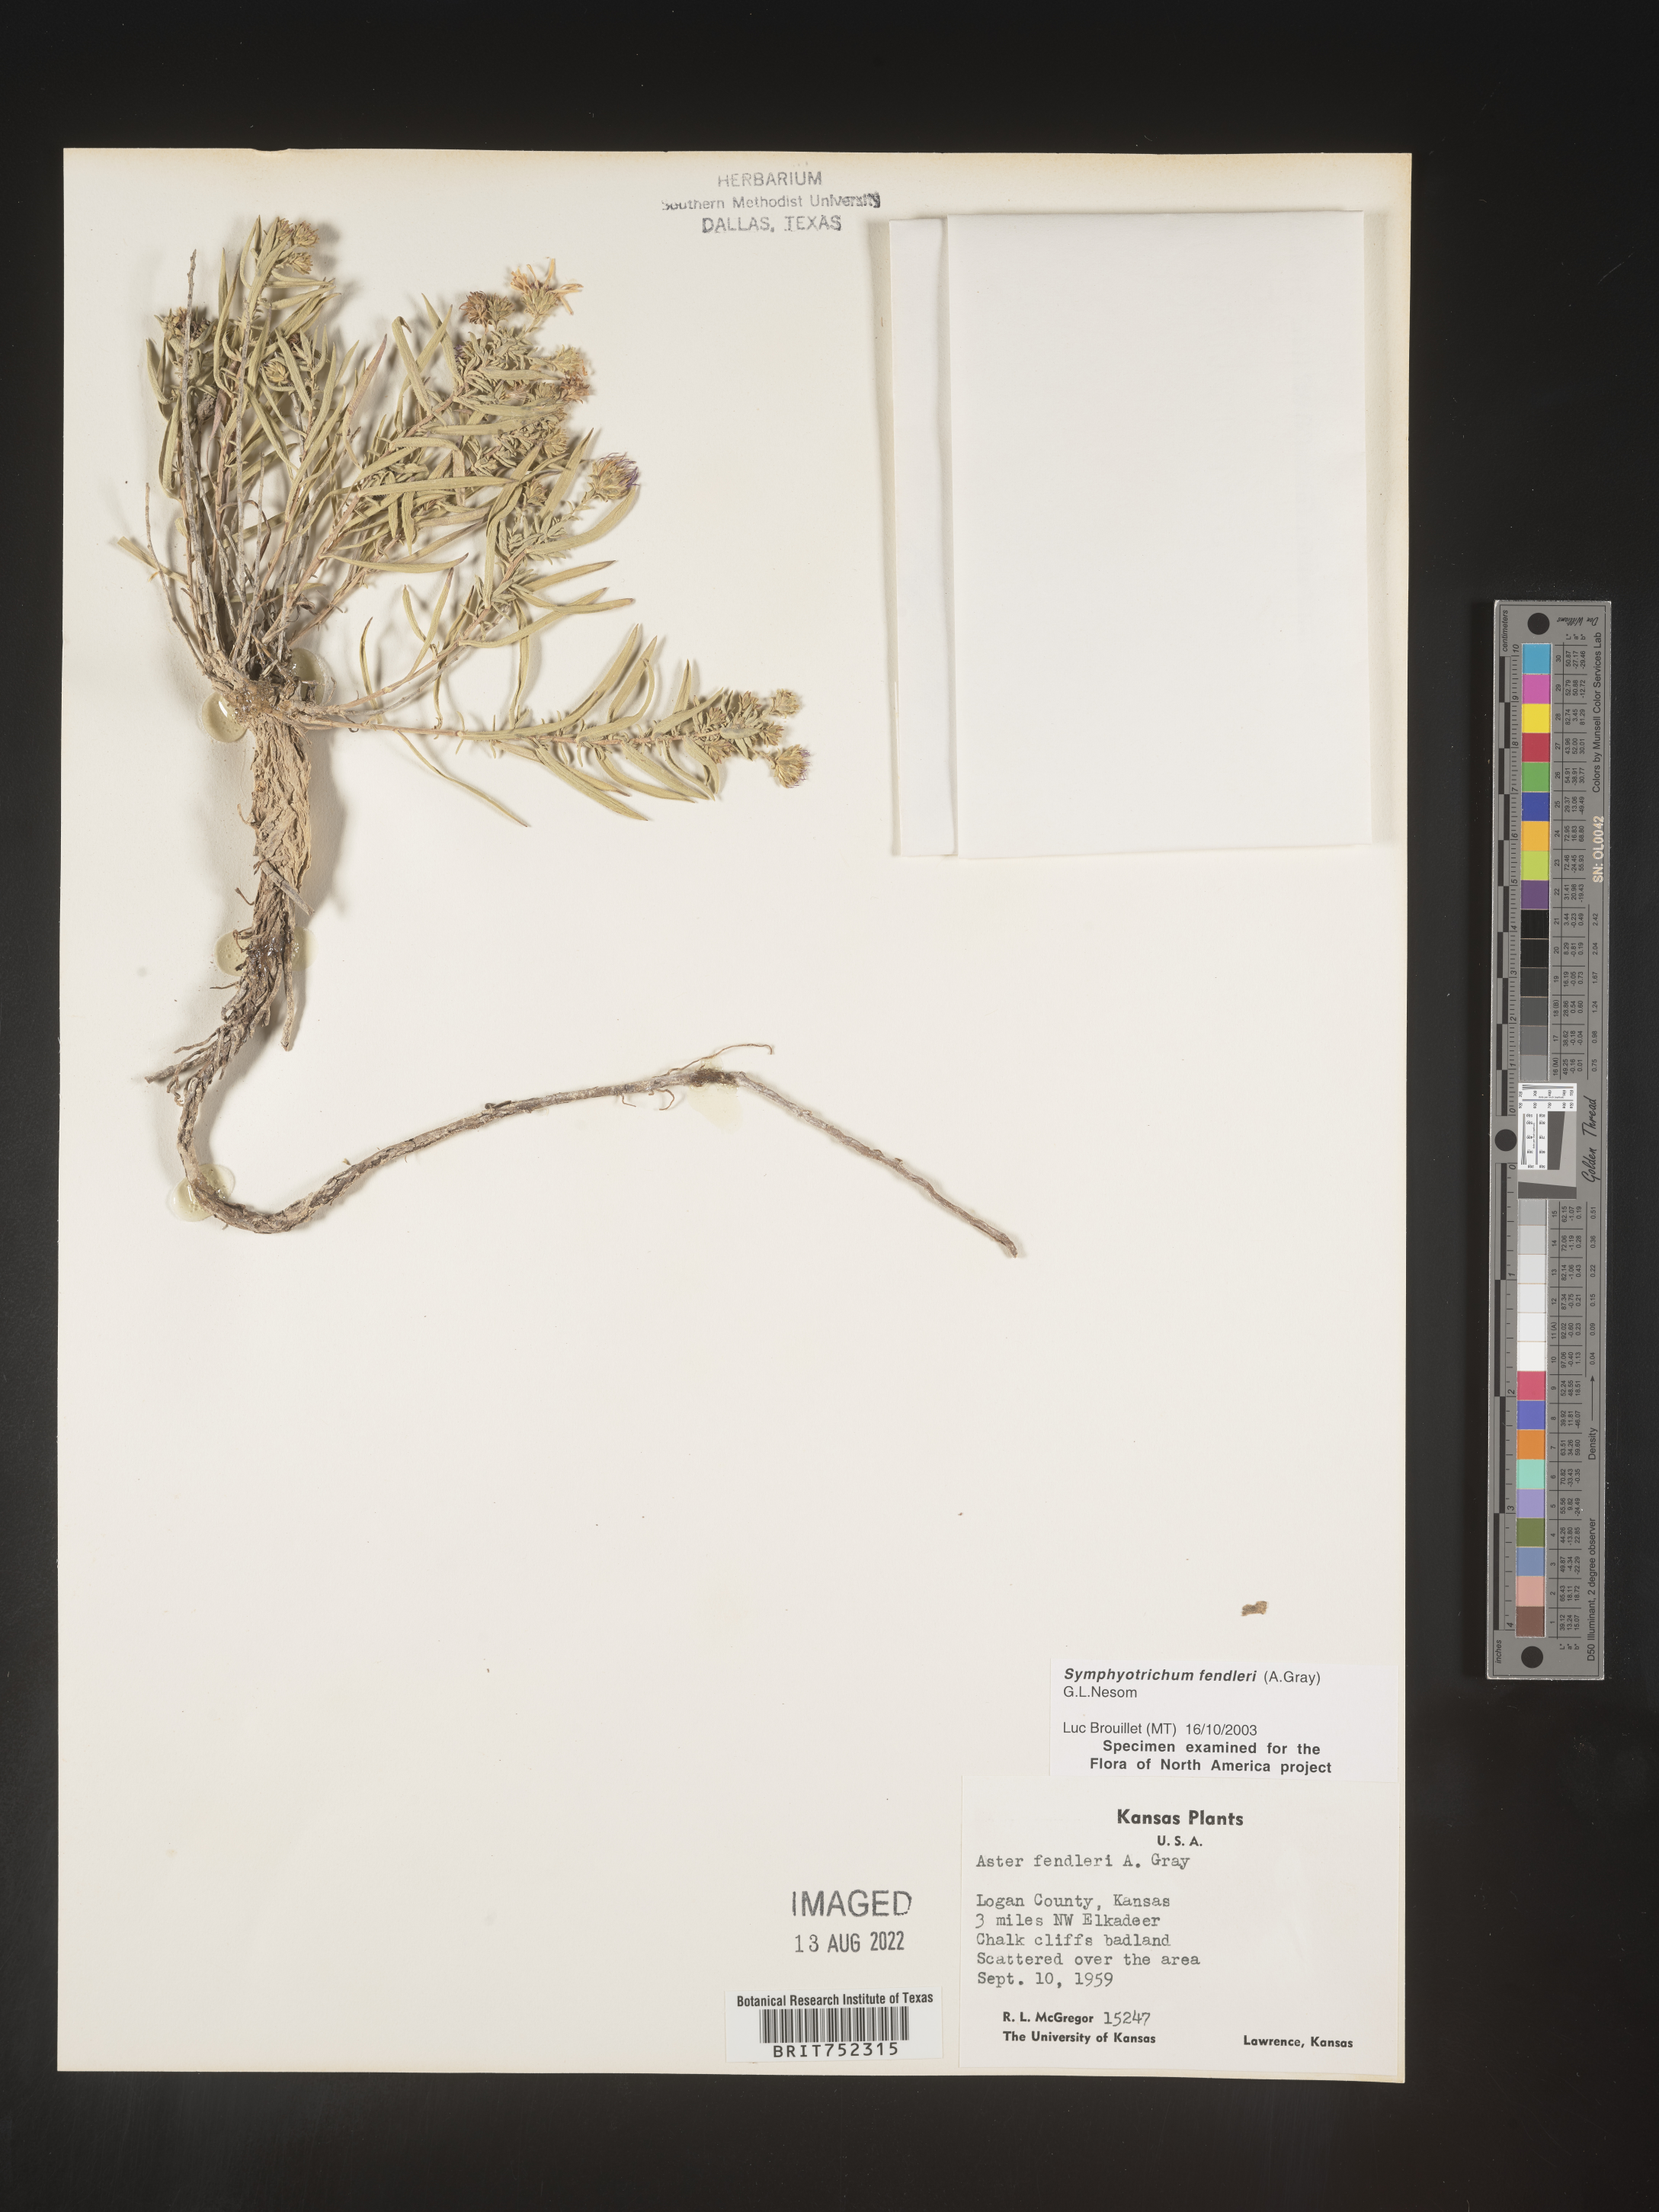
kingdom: Plantae
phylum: Tracheophyta
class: Magnoliopsida
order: Asterales
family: Asteraceae
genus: Symphyotrichum
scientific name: Symphyotrichum fendleri
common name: Fendler's aster
